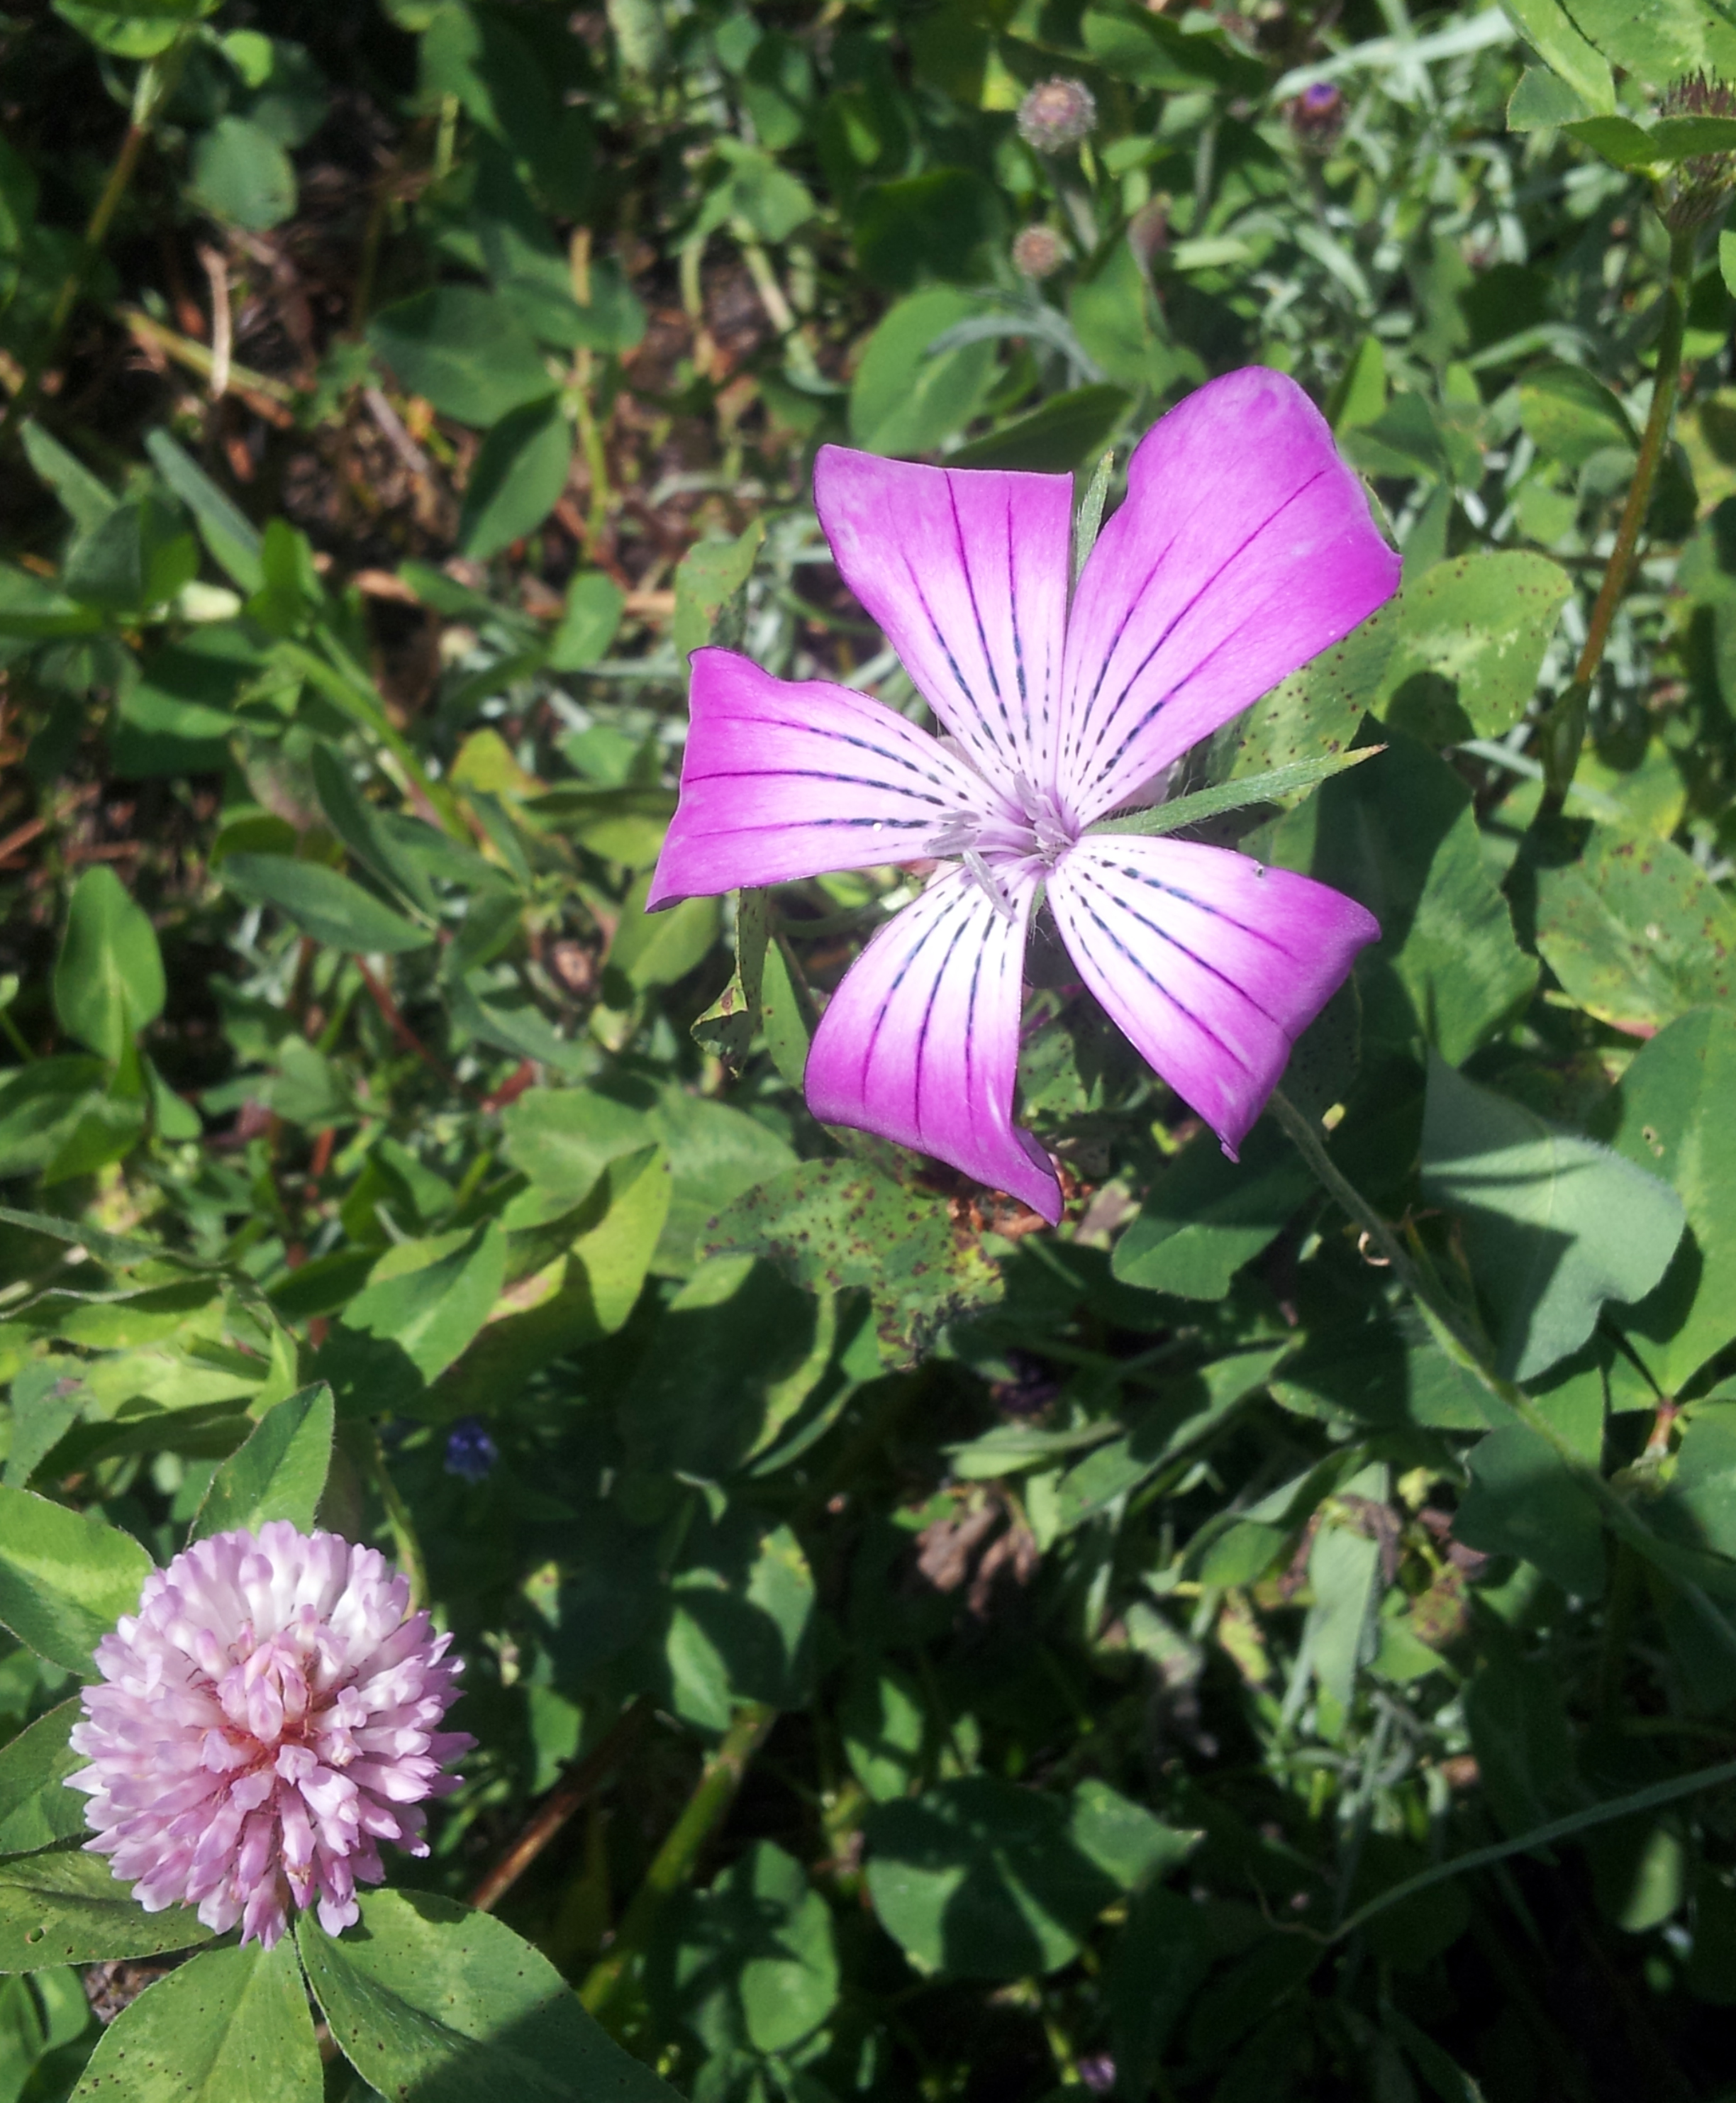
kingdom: Plantae
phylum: Tracheophyta
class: Magnoliopsida
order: Caryophyllales
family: Caryophyllaceae
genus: Agrostemma
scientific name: Agrostemma githago
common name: Common corncockle
